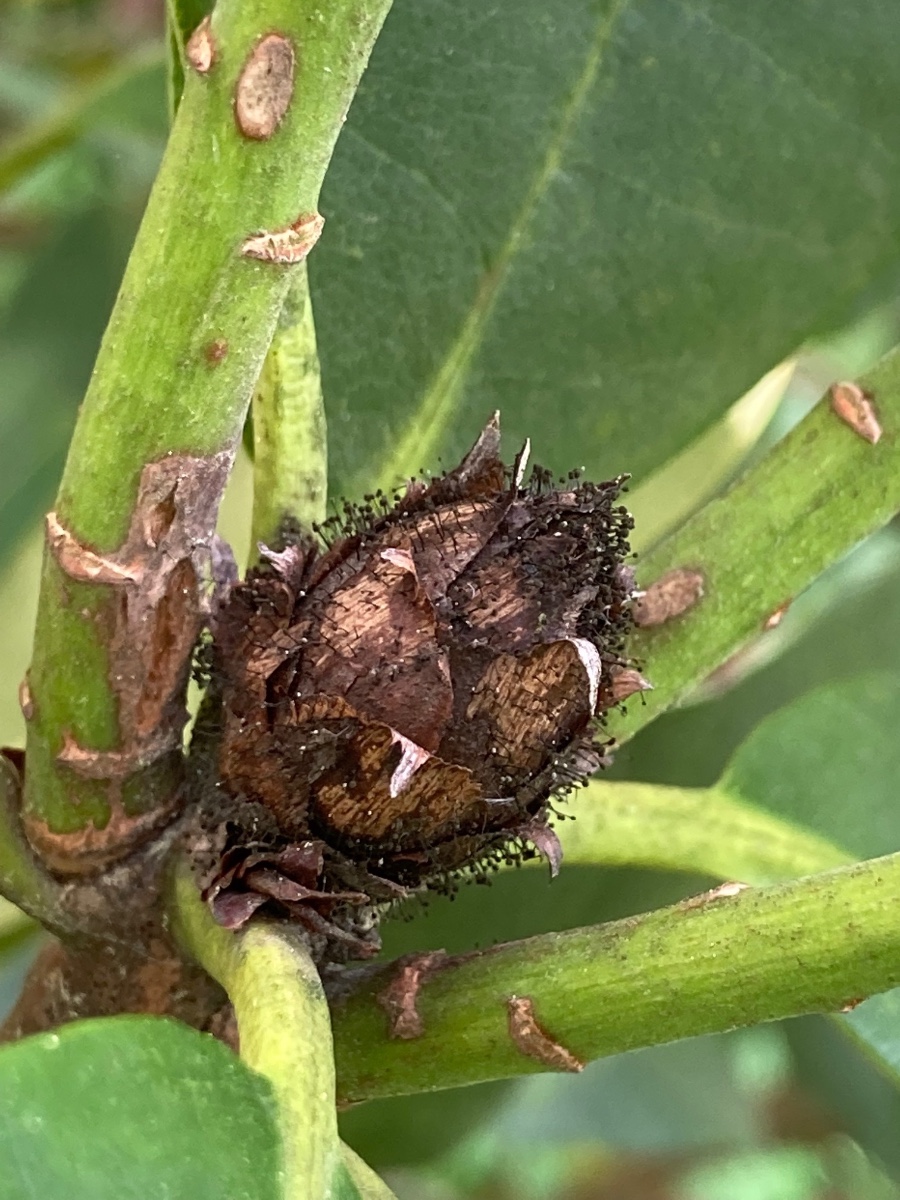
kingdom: Fungi
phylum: Ascomycota
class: Dothideomycetes
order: Pleosporales
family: Melanommataceae
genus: Seifertia
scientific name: Seifertia azaleae
